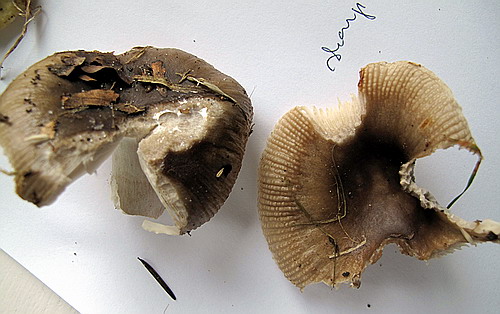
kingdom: Fungi
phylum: Basidiomycota
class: Agaricomycetes
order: Russulales
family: Russulaceae
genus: Russula
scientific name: Russula amoenolens
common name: skarp kam-skørhat
